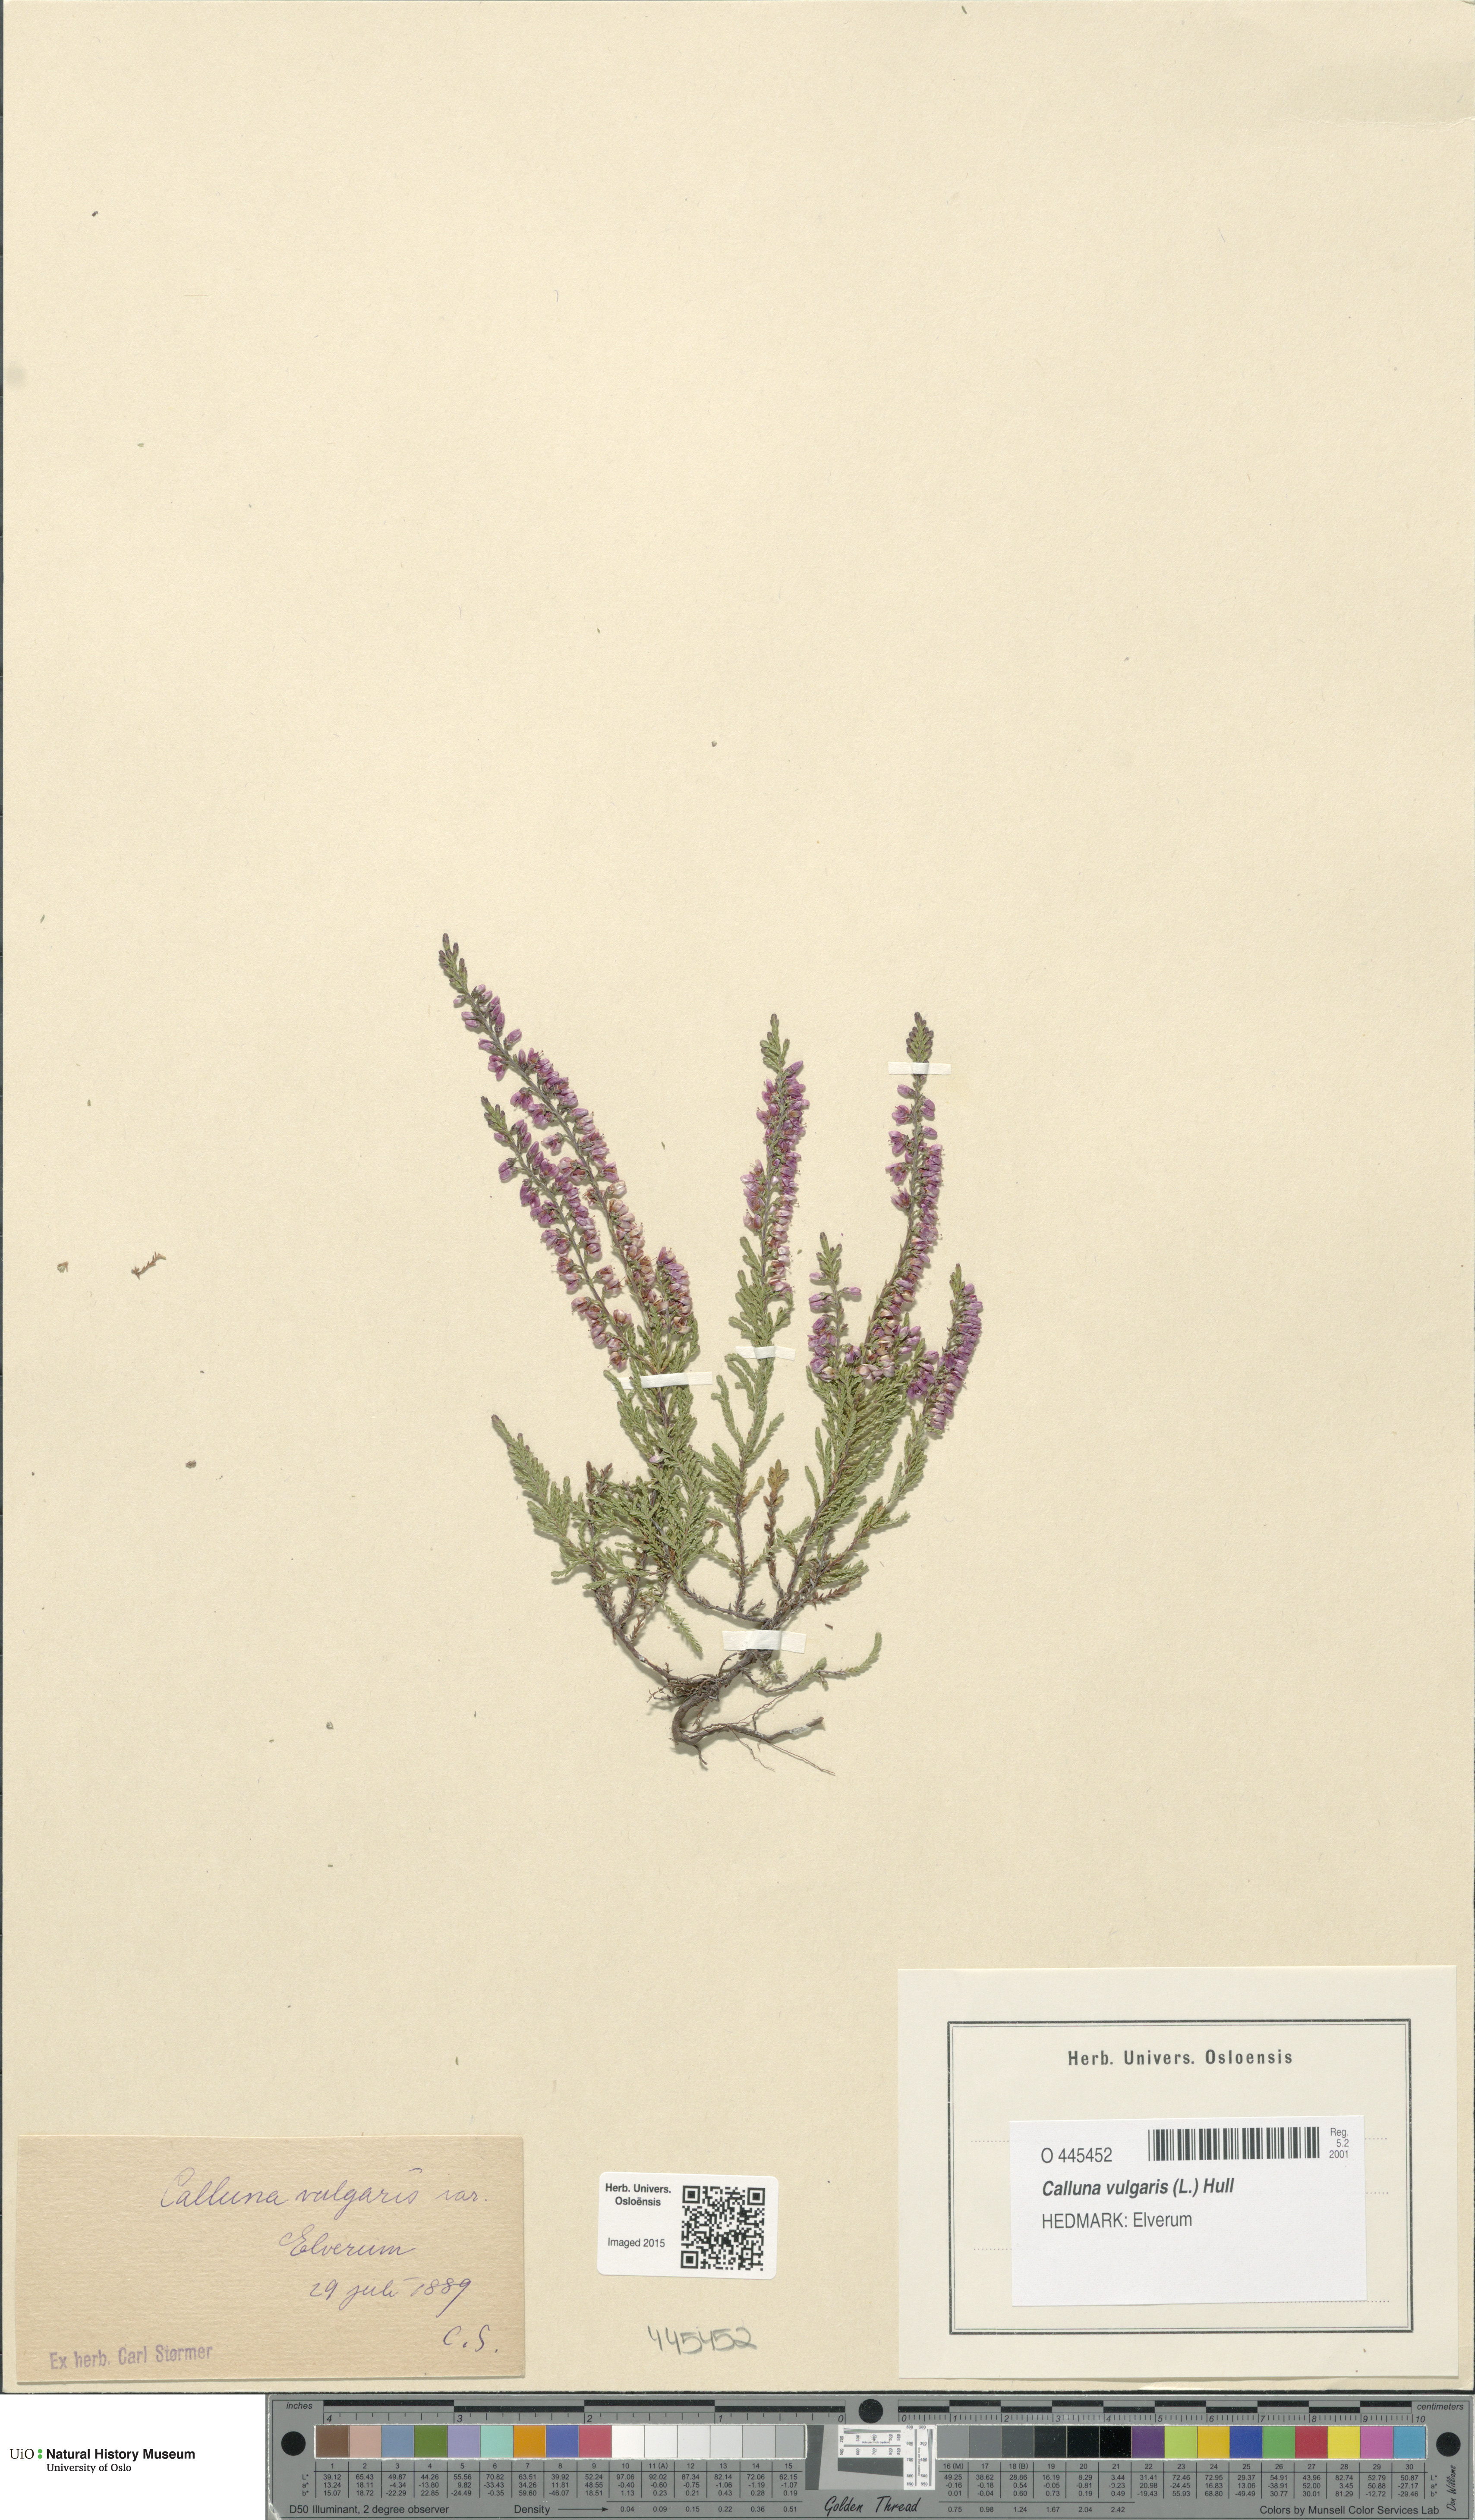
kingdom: Plantae
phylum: Tracheophyta
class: Magnoliopsida
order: Ericales
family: Ericaceae
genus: Calluna
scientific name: Calluna vulgaris
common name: Heather
